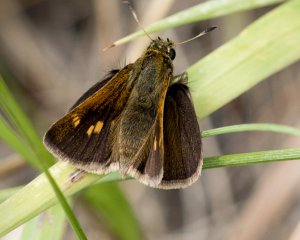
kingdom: Animalia
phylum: Arthropoda
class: Insecta
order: Lepidoptera
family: Hesperiidae
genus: Polites
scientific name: Polites themistocles
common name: Tawny-edged Skipper
